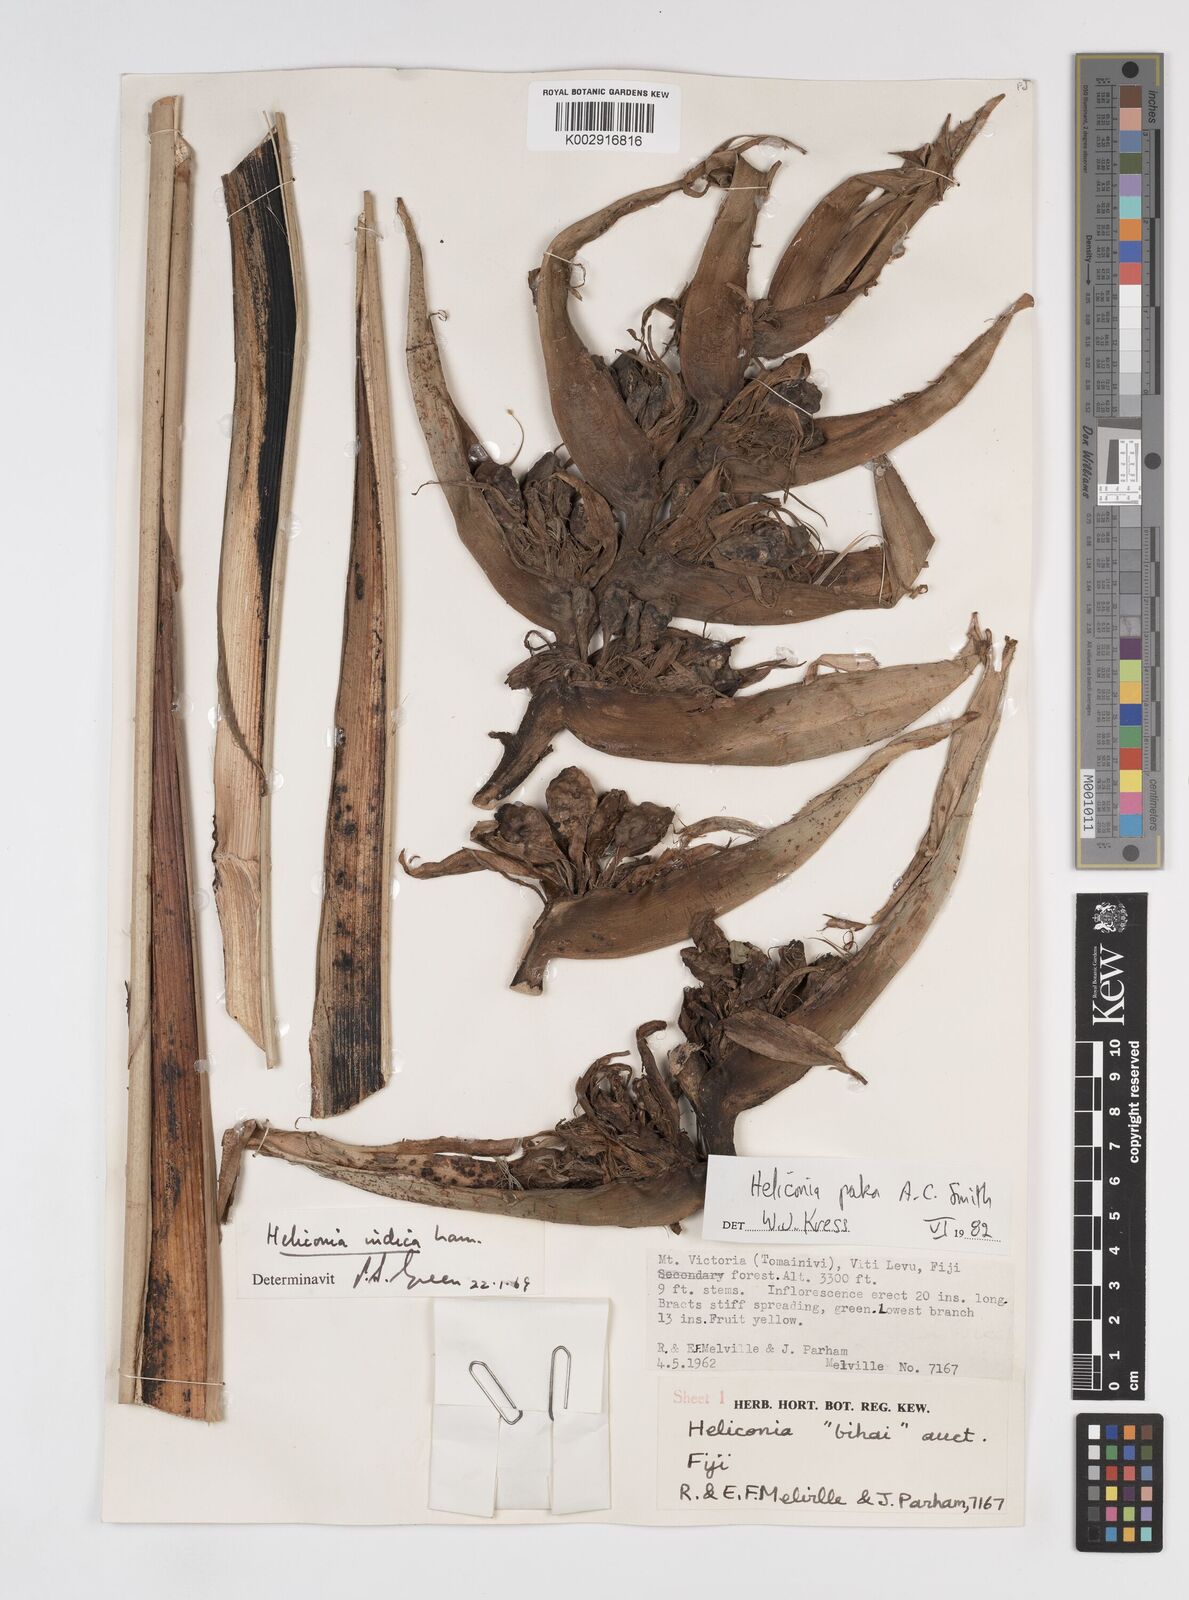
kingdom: Plantae
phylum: Tracheophyta
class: Liliopsida
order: Zingiberales
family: Heliconiaceae
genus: Heliconia
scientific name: Heliconia paka
